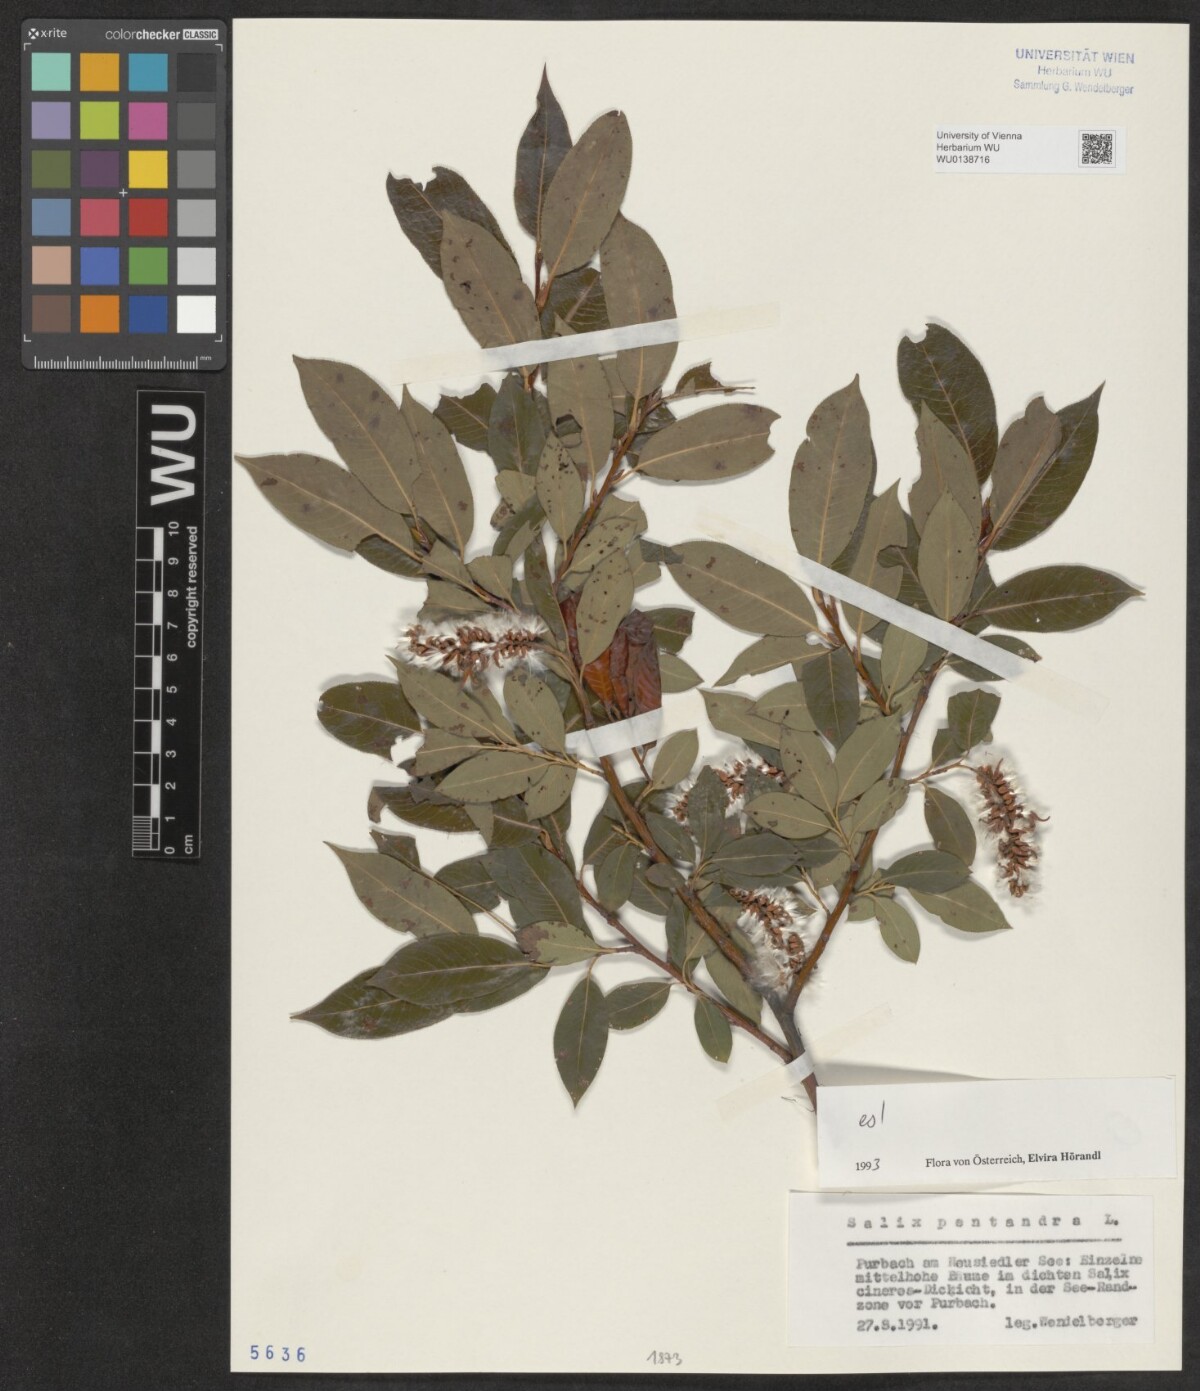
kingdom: Plantae
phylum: Tracheophyta
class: Magnoliopsida
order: Malpighiales
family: Salicaceae
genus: Salix
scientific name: Salix pentandra
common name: Bay willow
